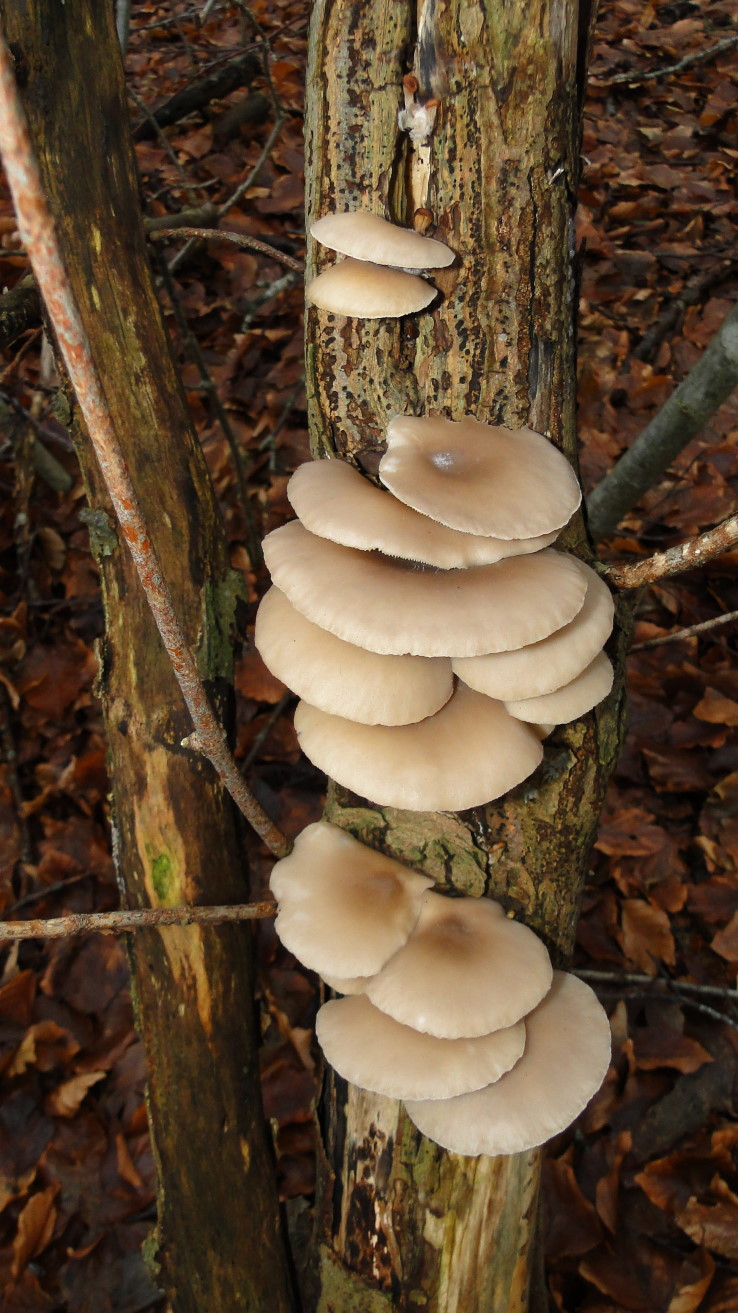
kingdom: Fungi
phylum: Basidiomycota
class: Agaricomycetes
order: Agaricales
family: Pleurotaceae
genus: Pleurotus
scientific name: Pleurotus ostreatus
